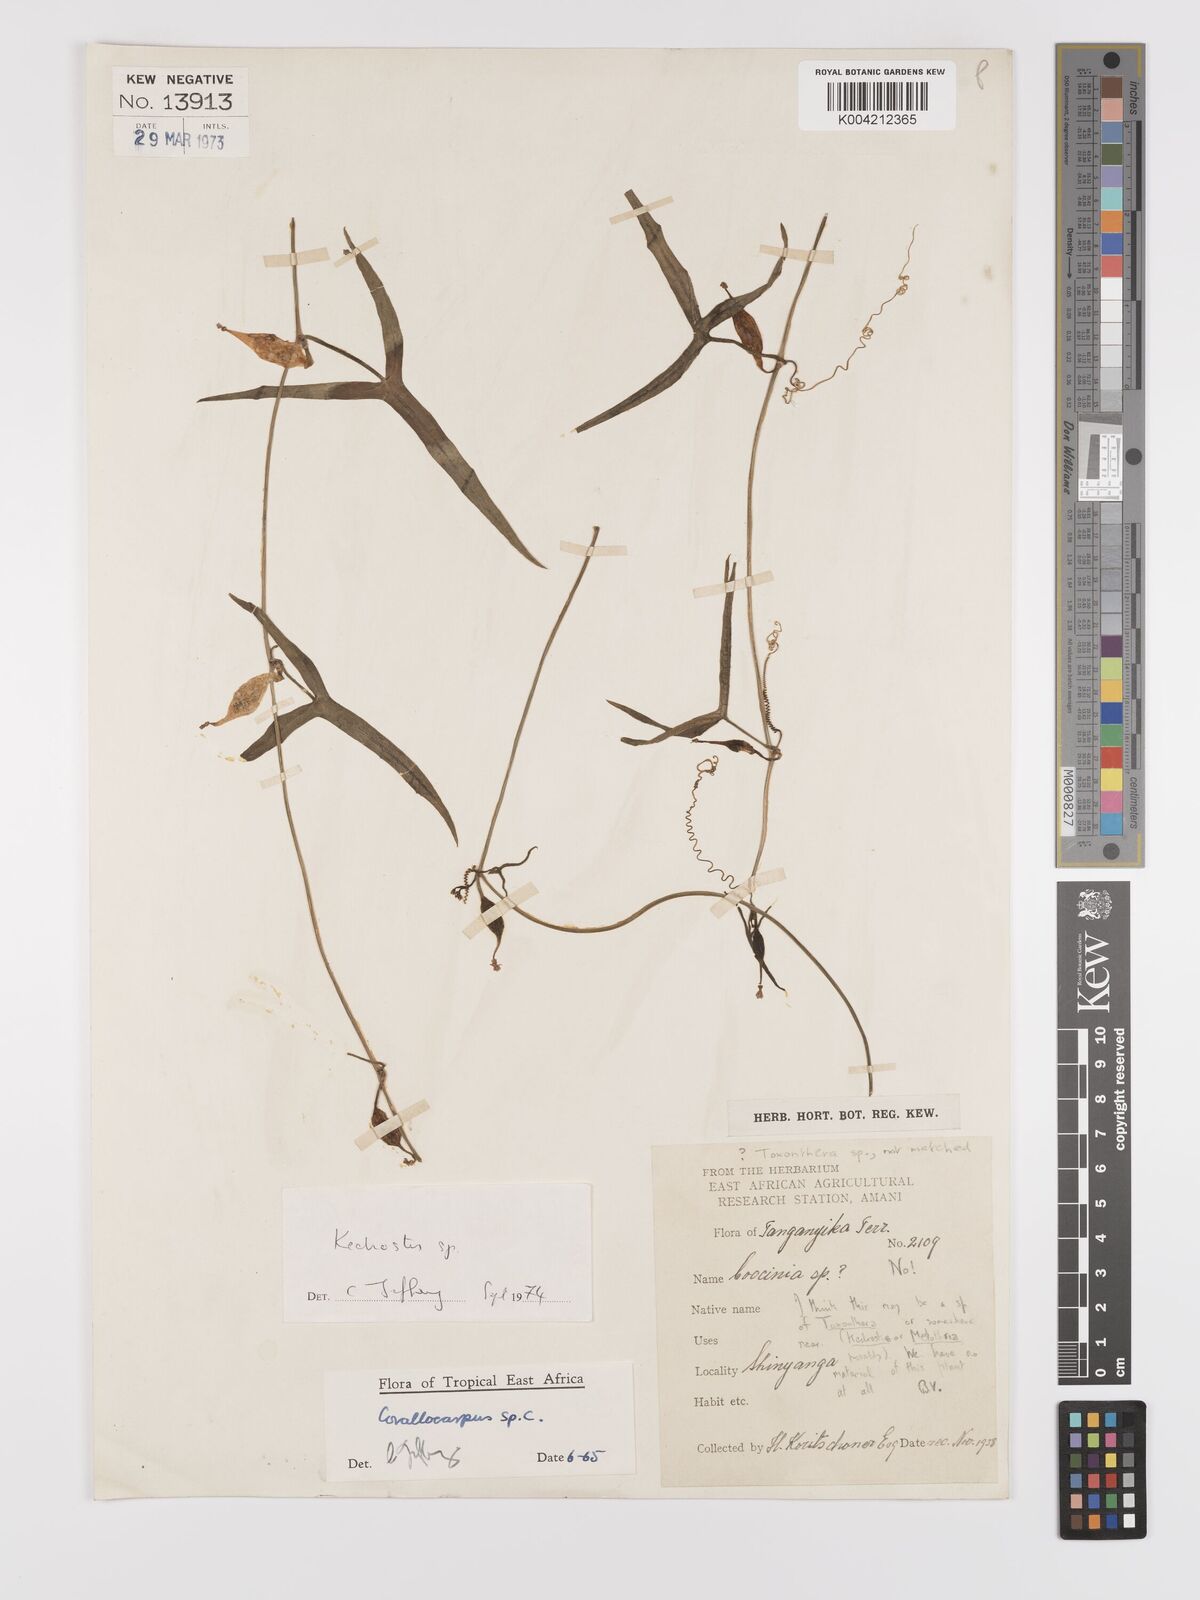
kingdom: Plantae
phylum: Tracheophyta
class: Magnoliopsida
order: Cucurbitales
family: Cucurbitaceae
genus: Kedrostis
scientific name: Kedrostis
